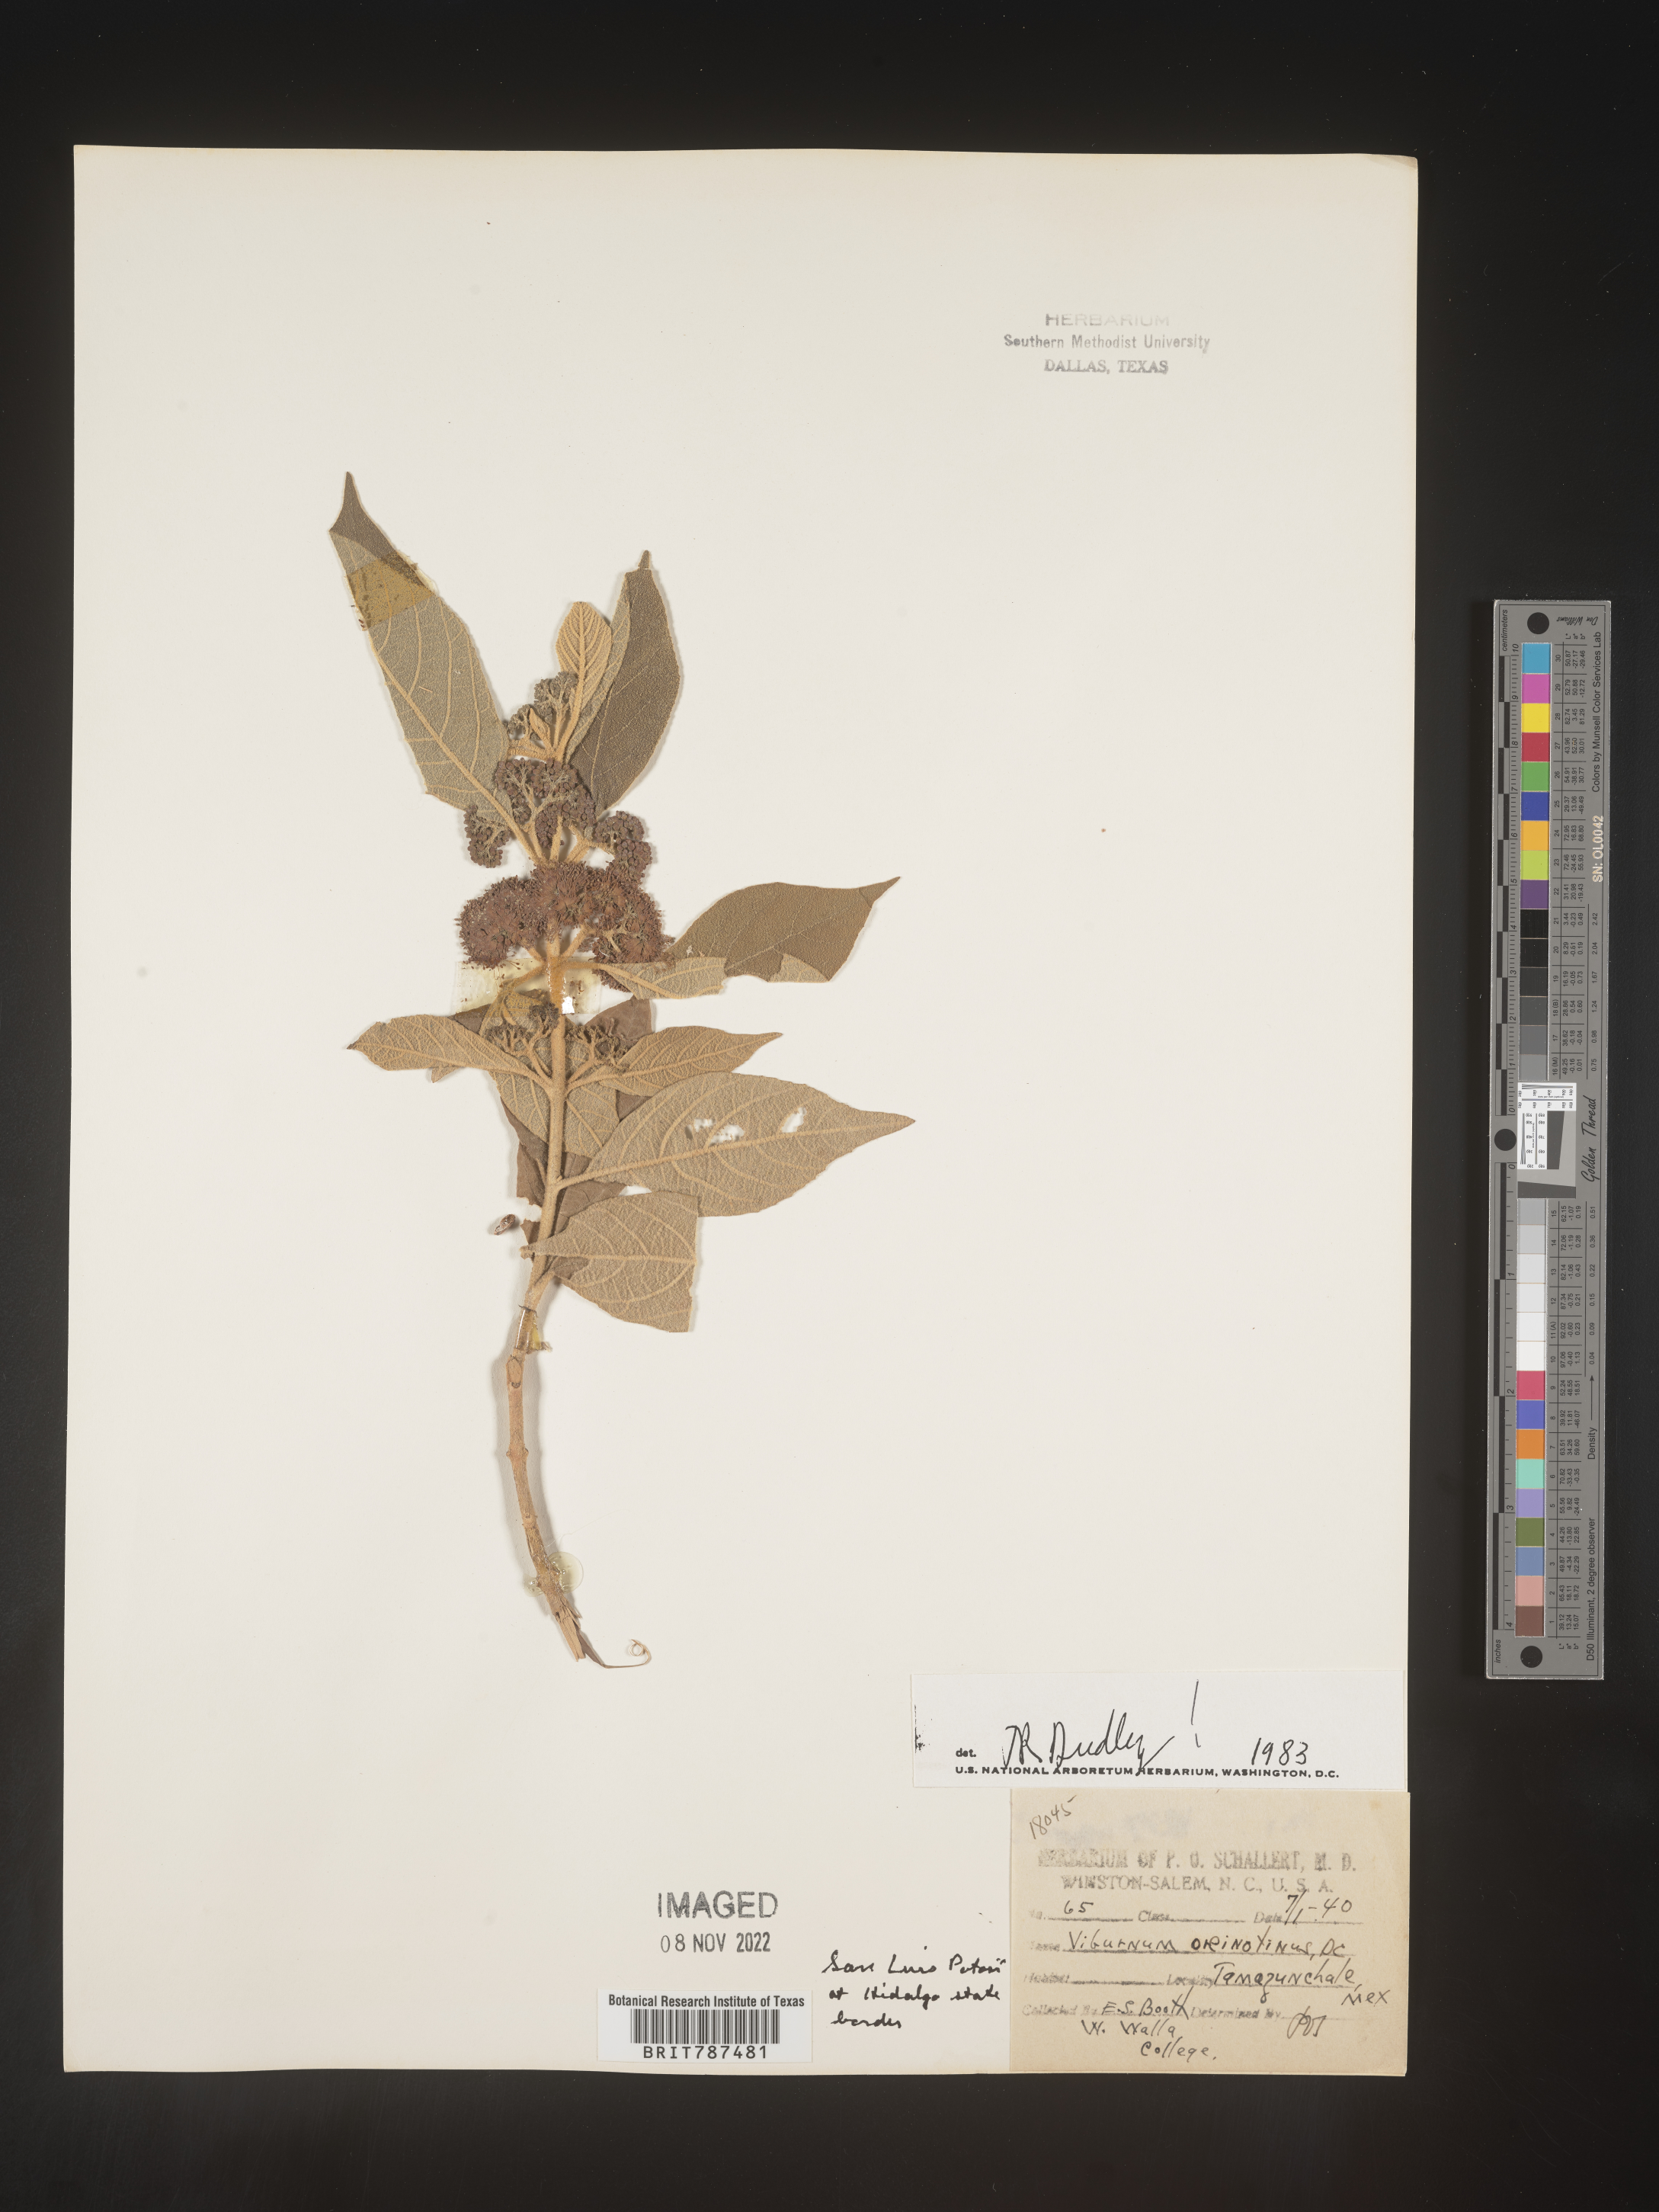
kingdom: Plantae
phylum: Tracheophyta
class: Magnoliopsida
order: Dipsacales
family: Viburnaceae
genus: Viburnum
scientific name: Viburnum
